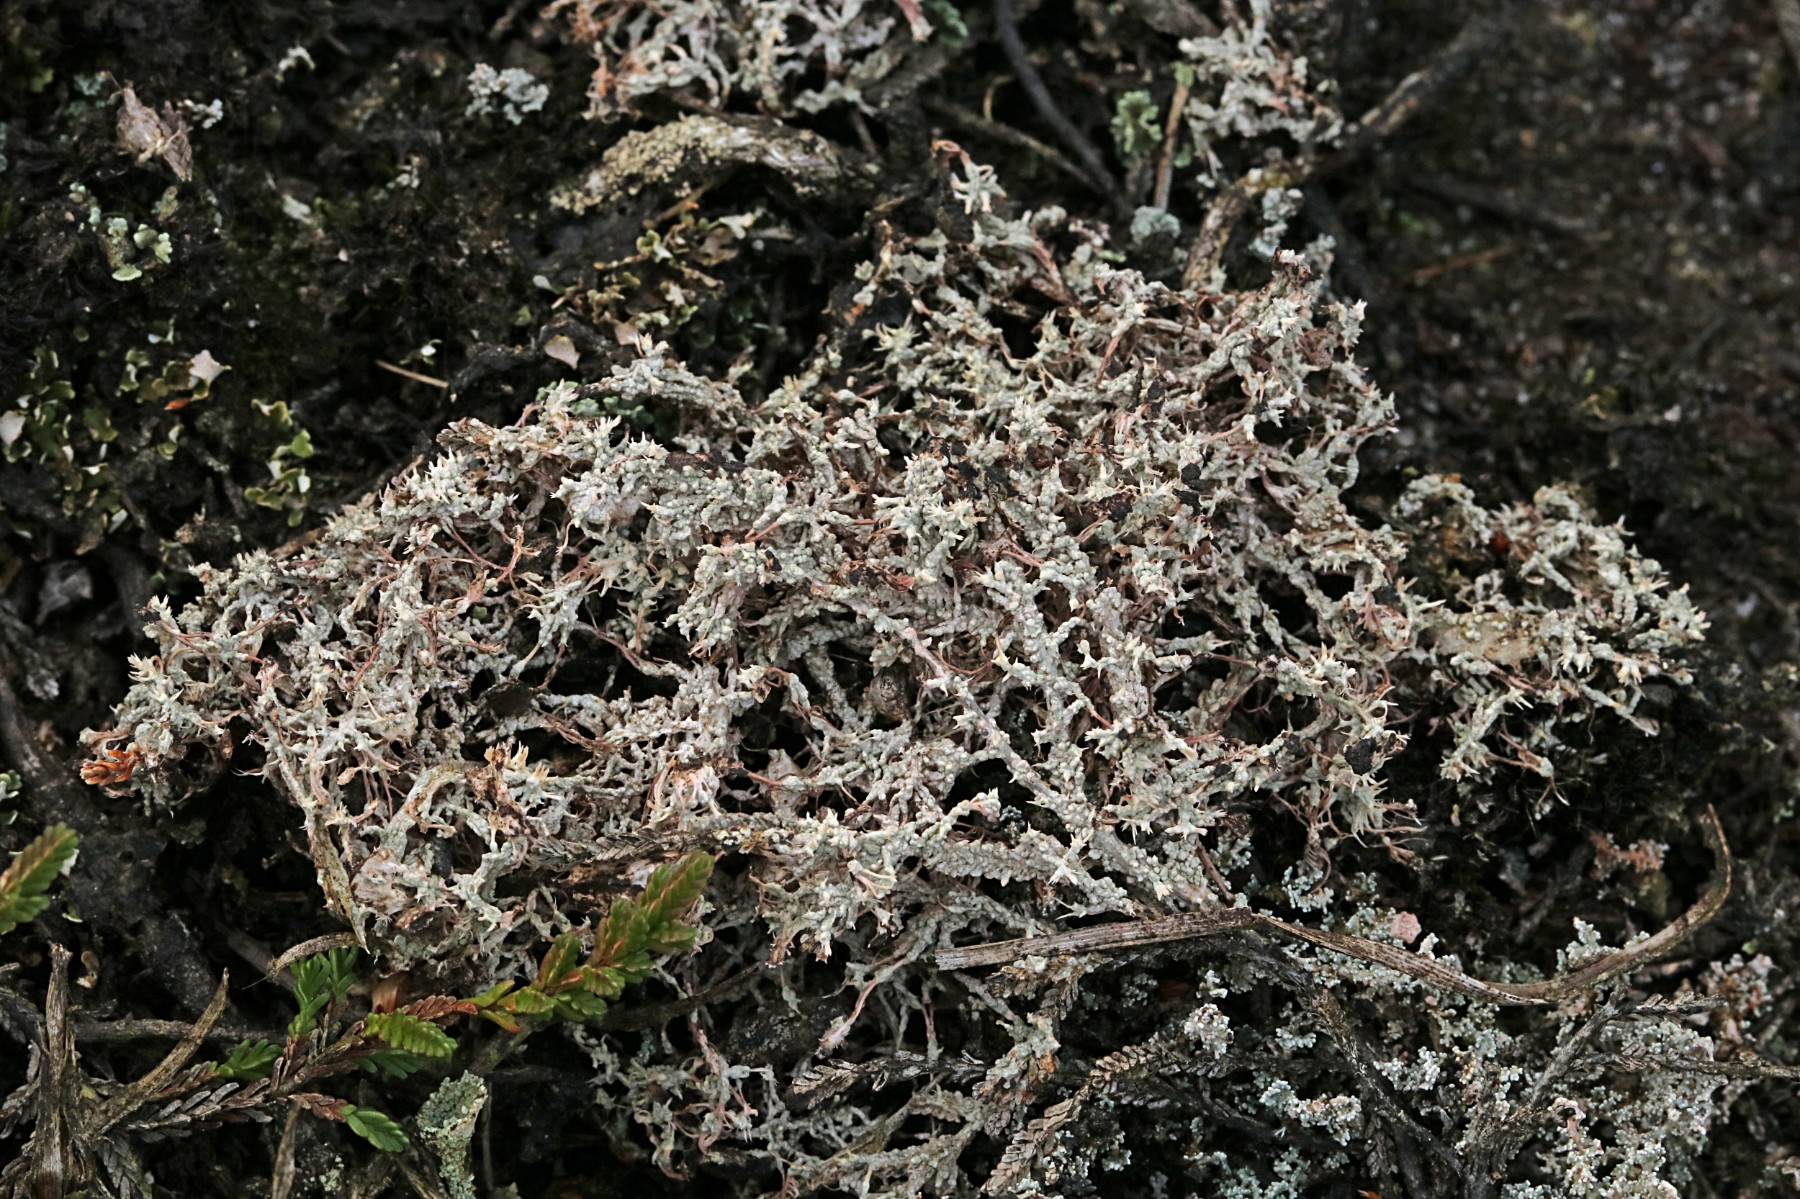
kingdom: Fungi
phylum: Ascomycota
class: Lecanoromycetes
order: Pertusariales
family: Ochrolechiaceae
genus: Ochrolechia
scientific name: Ochrolechia frigida
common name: fjeld-blegskivelav
